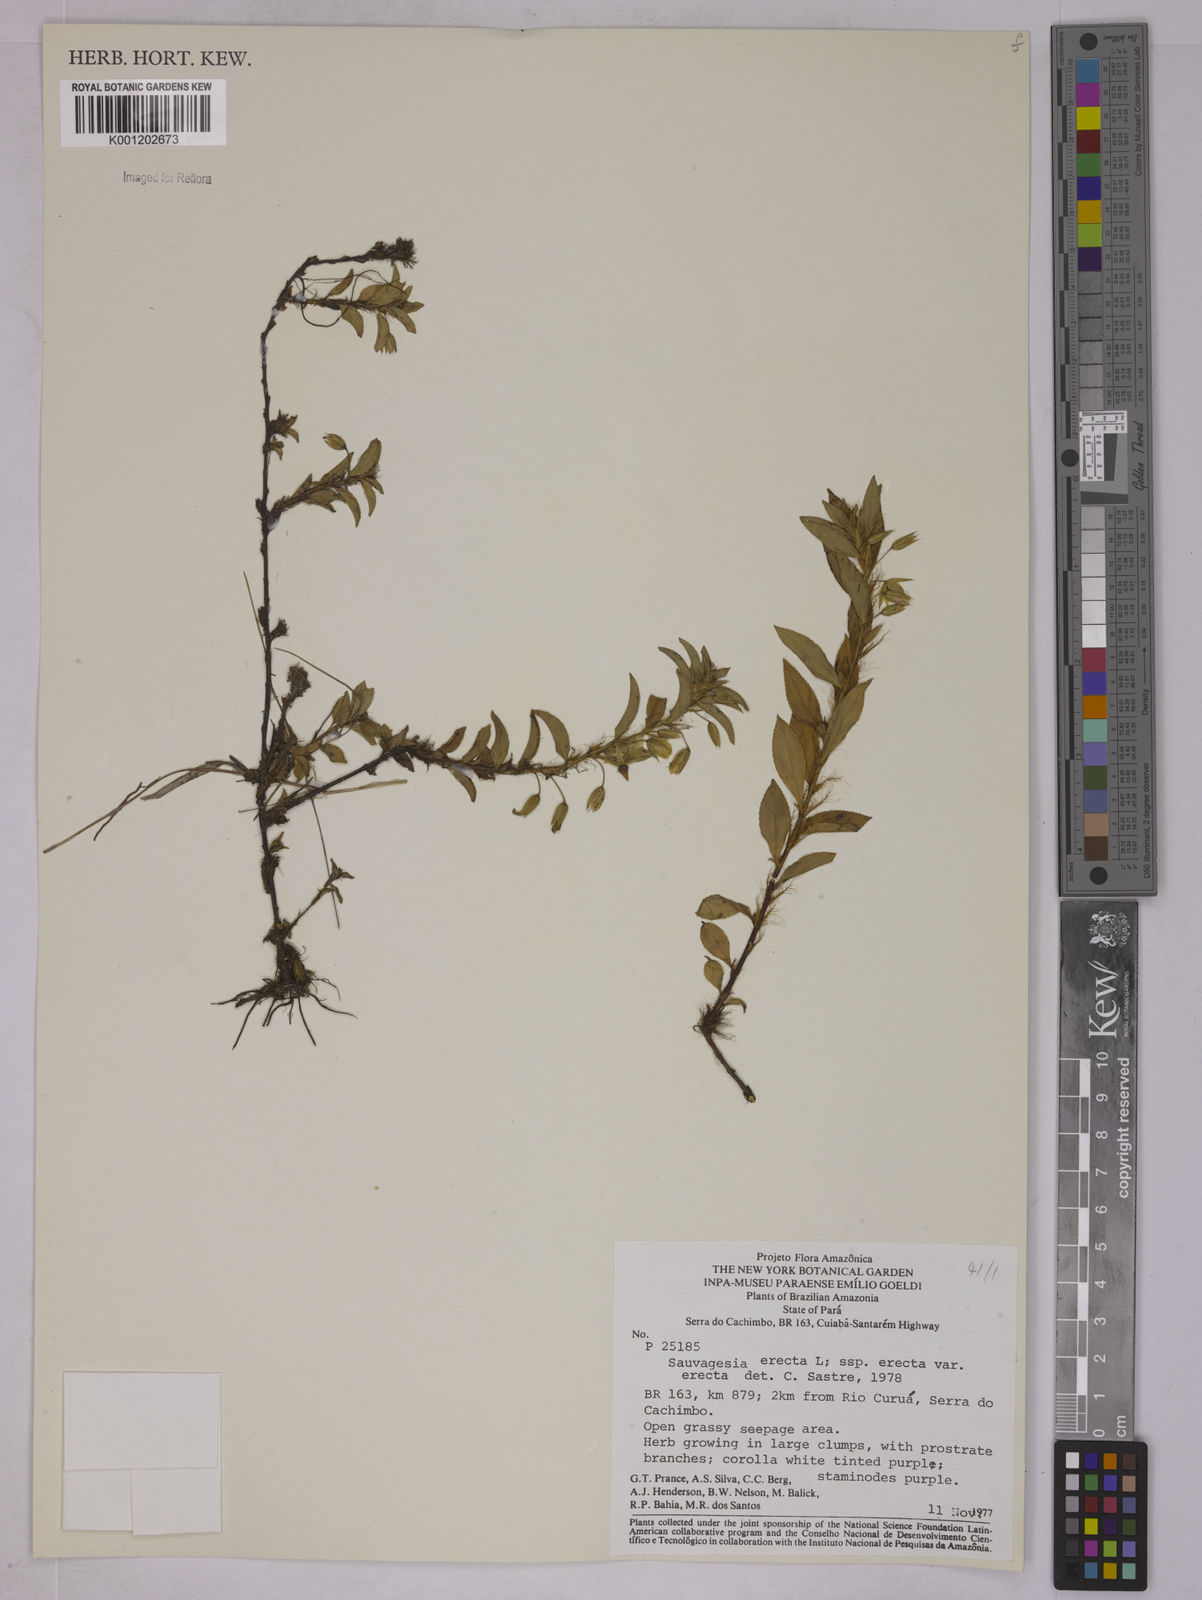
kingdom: Plantae
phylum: Tracheophyta
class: Magnoliopsida
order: Malpighiales
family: Ochnaceae
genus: Sauvagesia
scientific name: Sauvagesia erecta
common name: Creole tea
